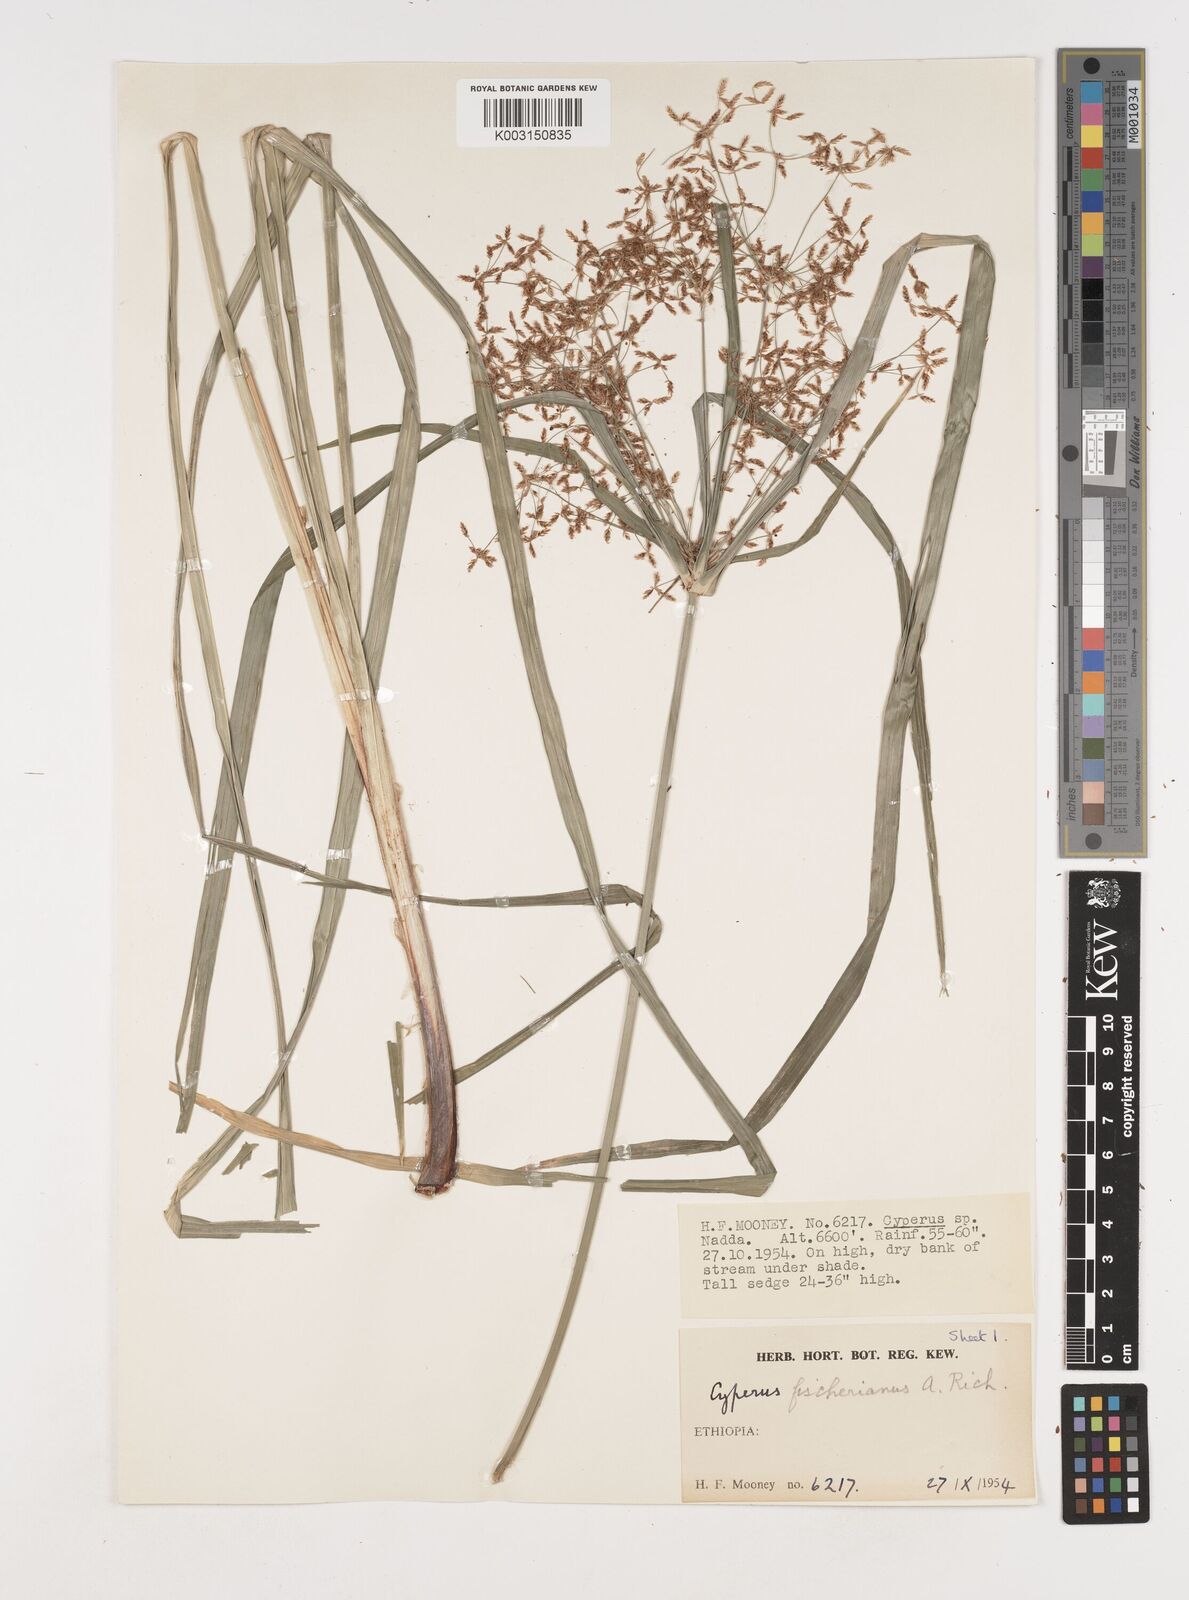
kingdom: Plantae
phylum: Tracheophyta
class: Liliopsida
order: Poales
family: Cyperaceae
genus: Cyperus
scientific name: Cyperus fischerianus
